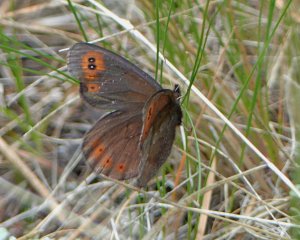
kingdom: Animalia
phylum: Arthropoda
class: Insecta
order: Lepidoptera
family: Nymphalidae
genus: Erebia
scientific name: Erebia epipsodea
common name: Common Alpine
